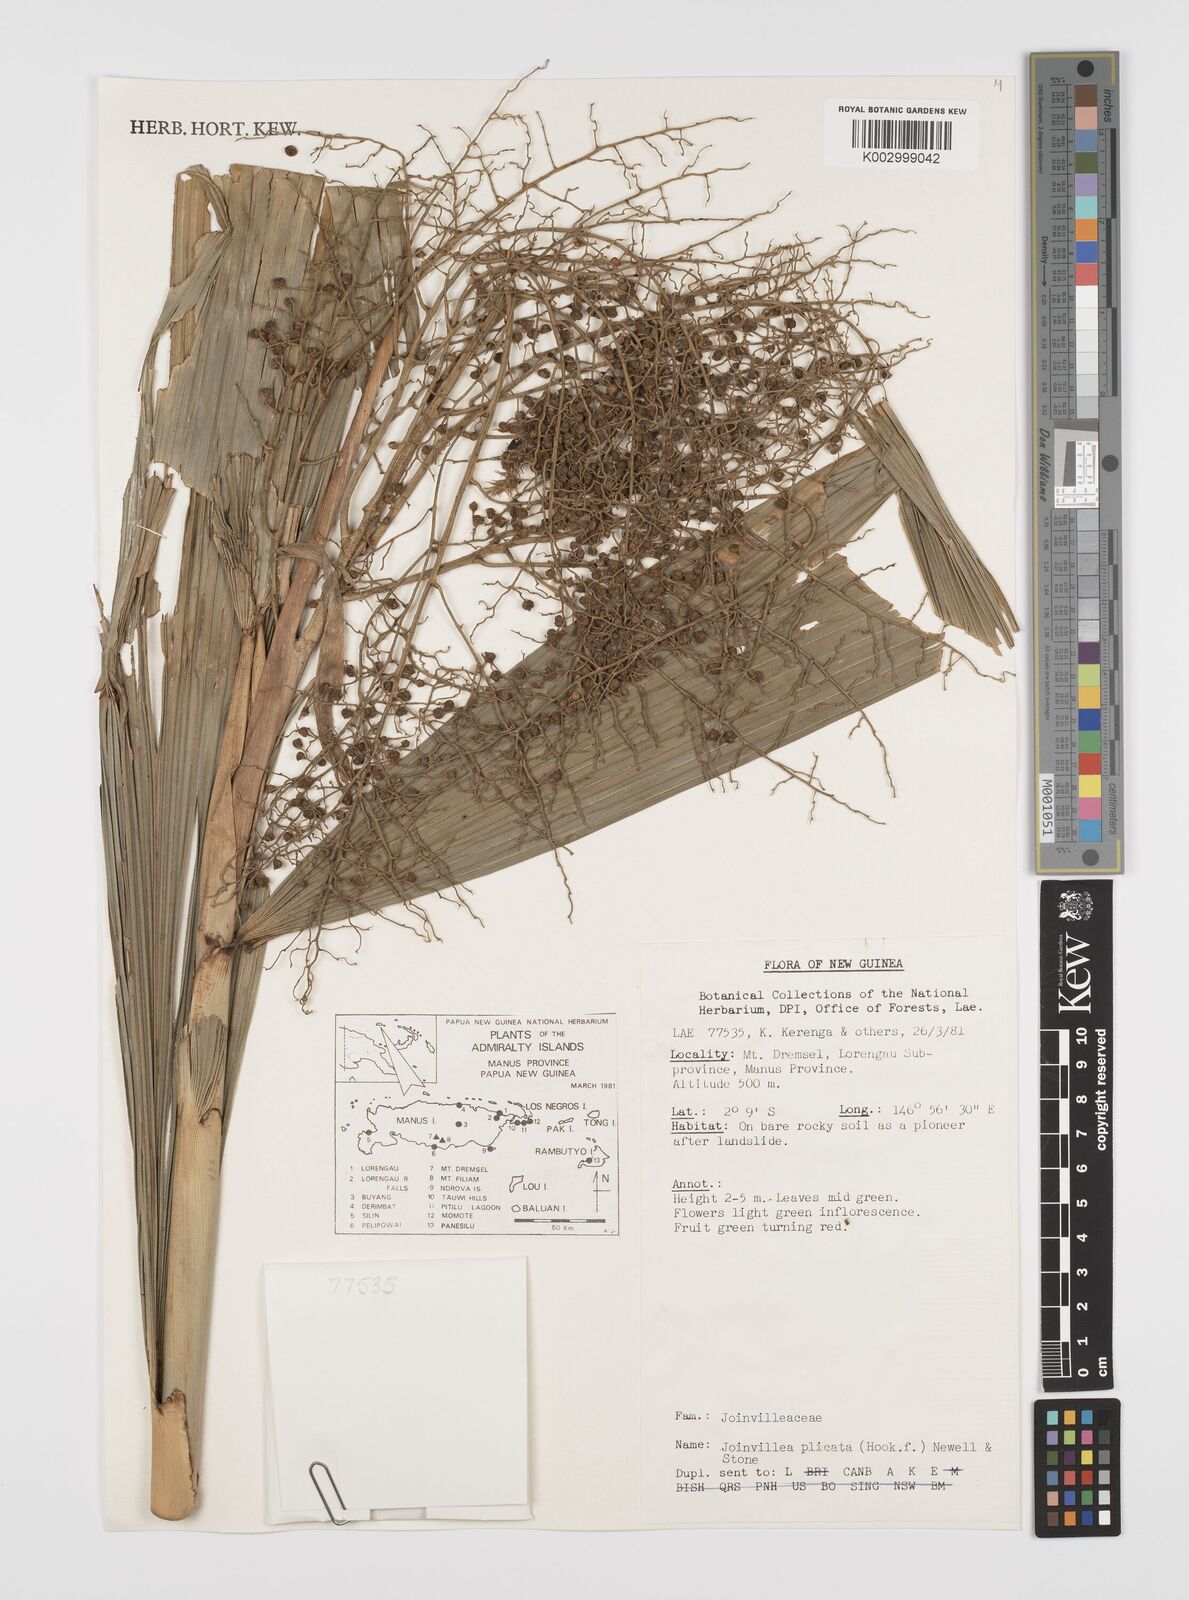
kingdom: Plantae
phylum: Tracheophyta
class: Liliopsida
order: Poales
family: Joinvilleaceae
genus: Joinvillea
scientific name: Joinvillea plicata
